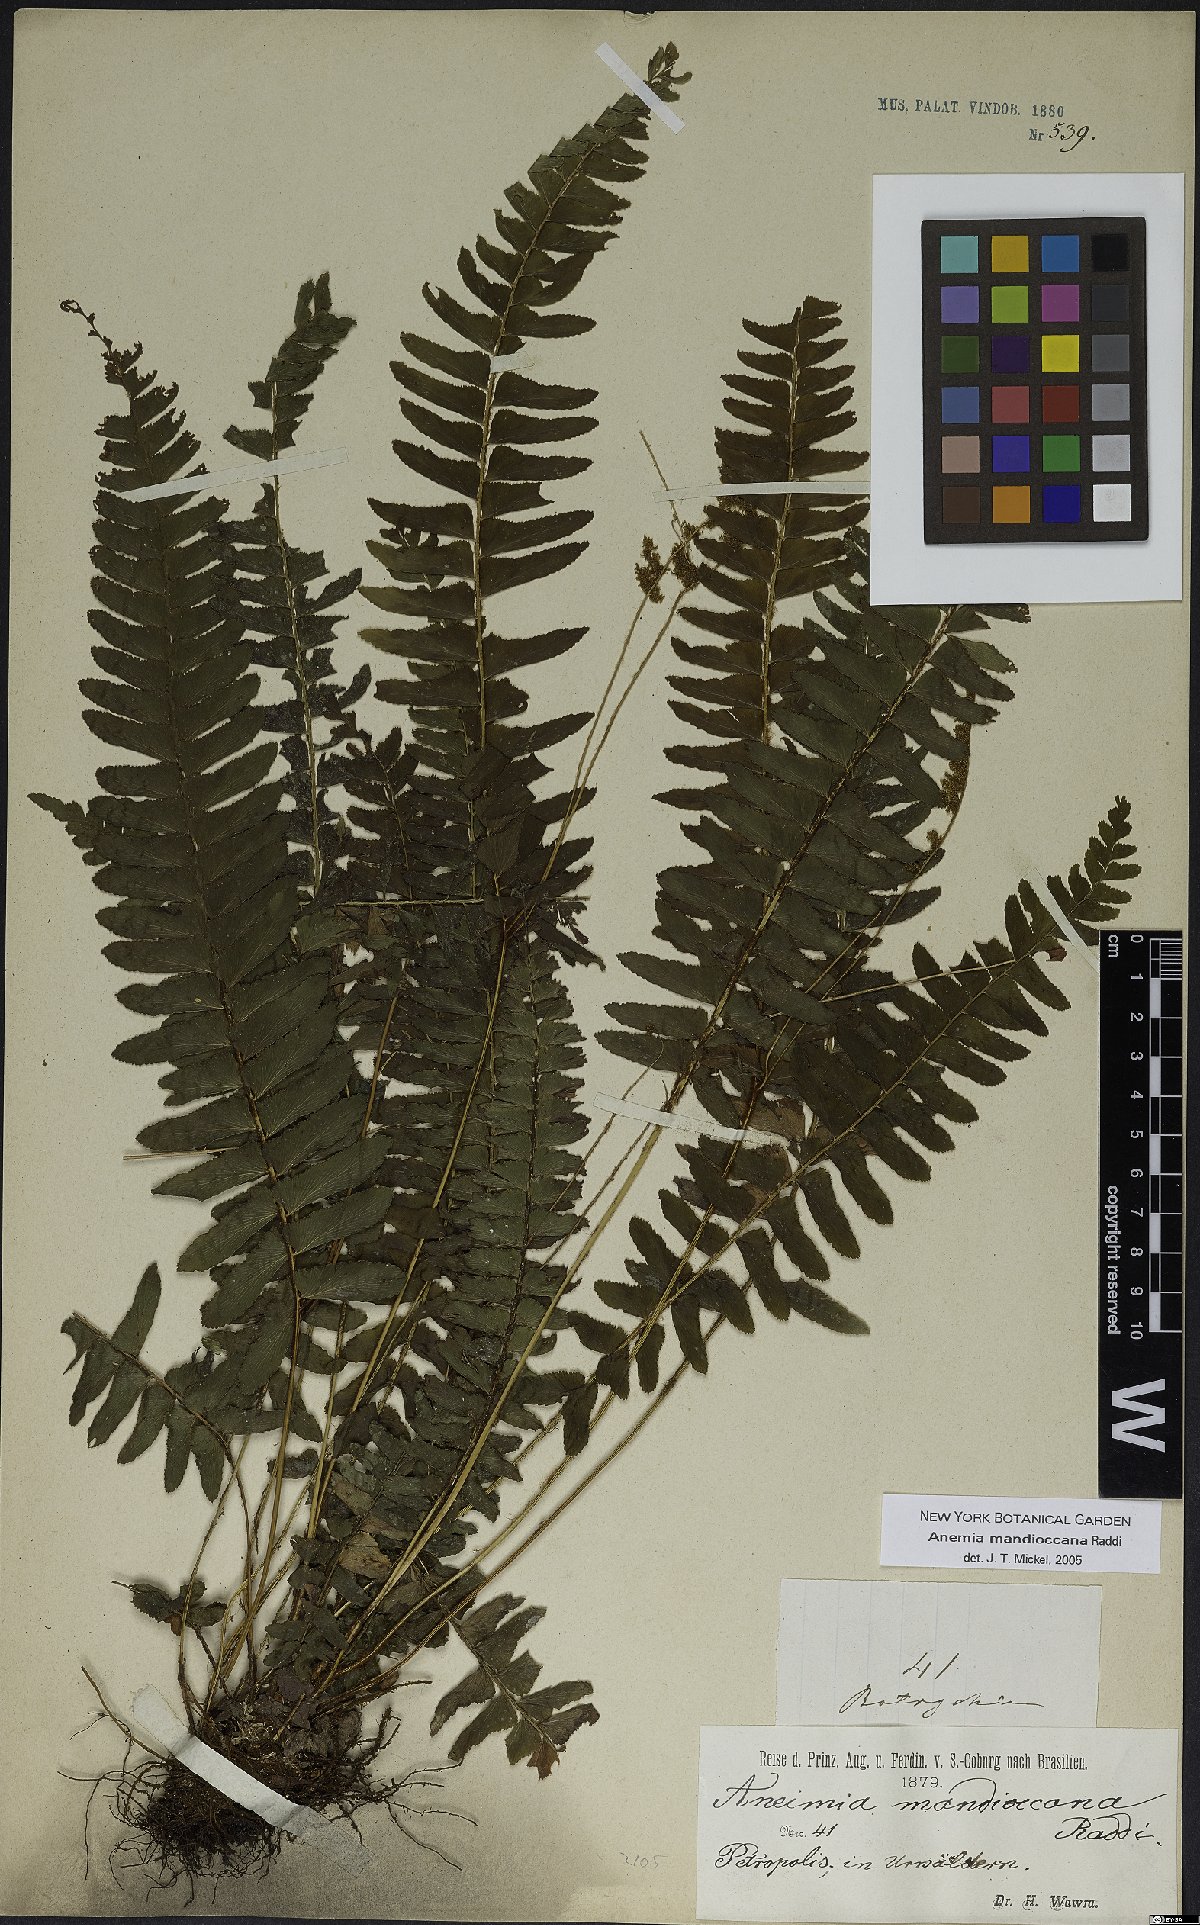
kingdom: Plantae
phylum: Tracheophyta
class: Polypodiopsida
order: Schizaeales
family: Anemiaceae
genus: Anemia
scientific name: Anemia mandiocana
